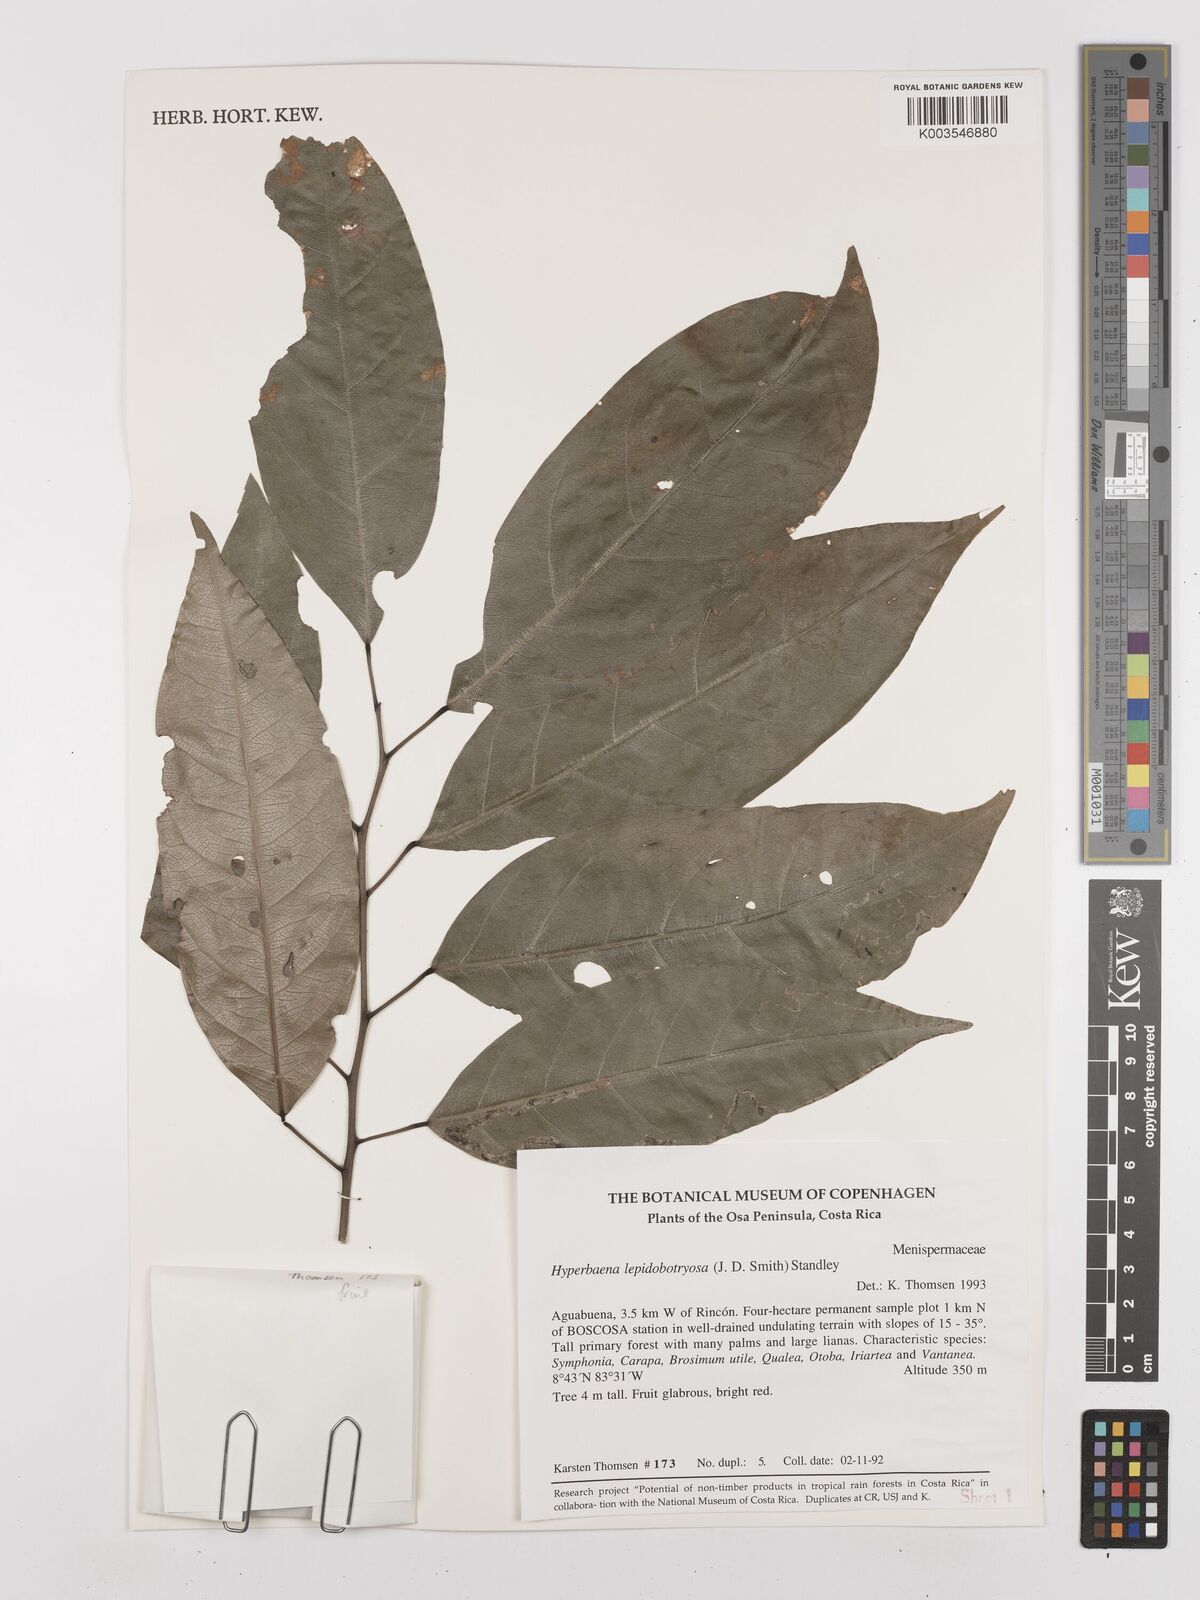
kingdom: Plantae
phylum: Tracheophyta
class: Magnoliopsida
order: Ranunculales
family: Menispermaceae
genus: Hyperbaena
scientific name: Hyperbaena leptobotryosa
